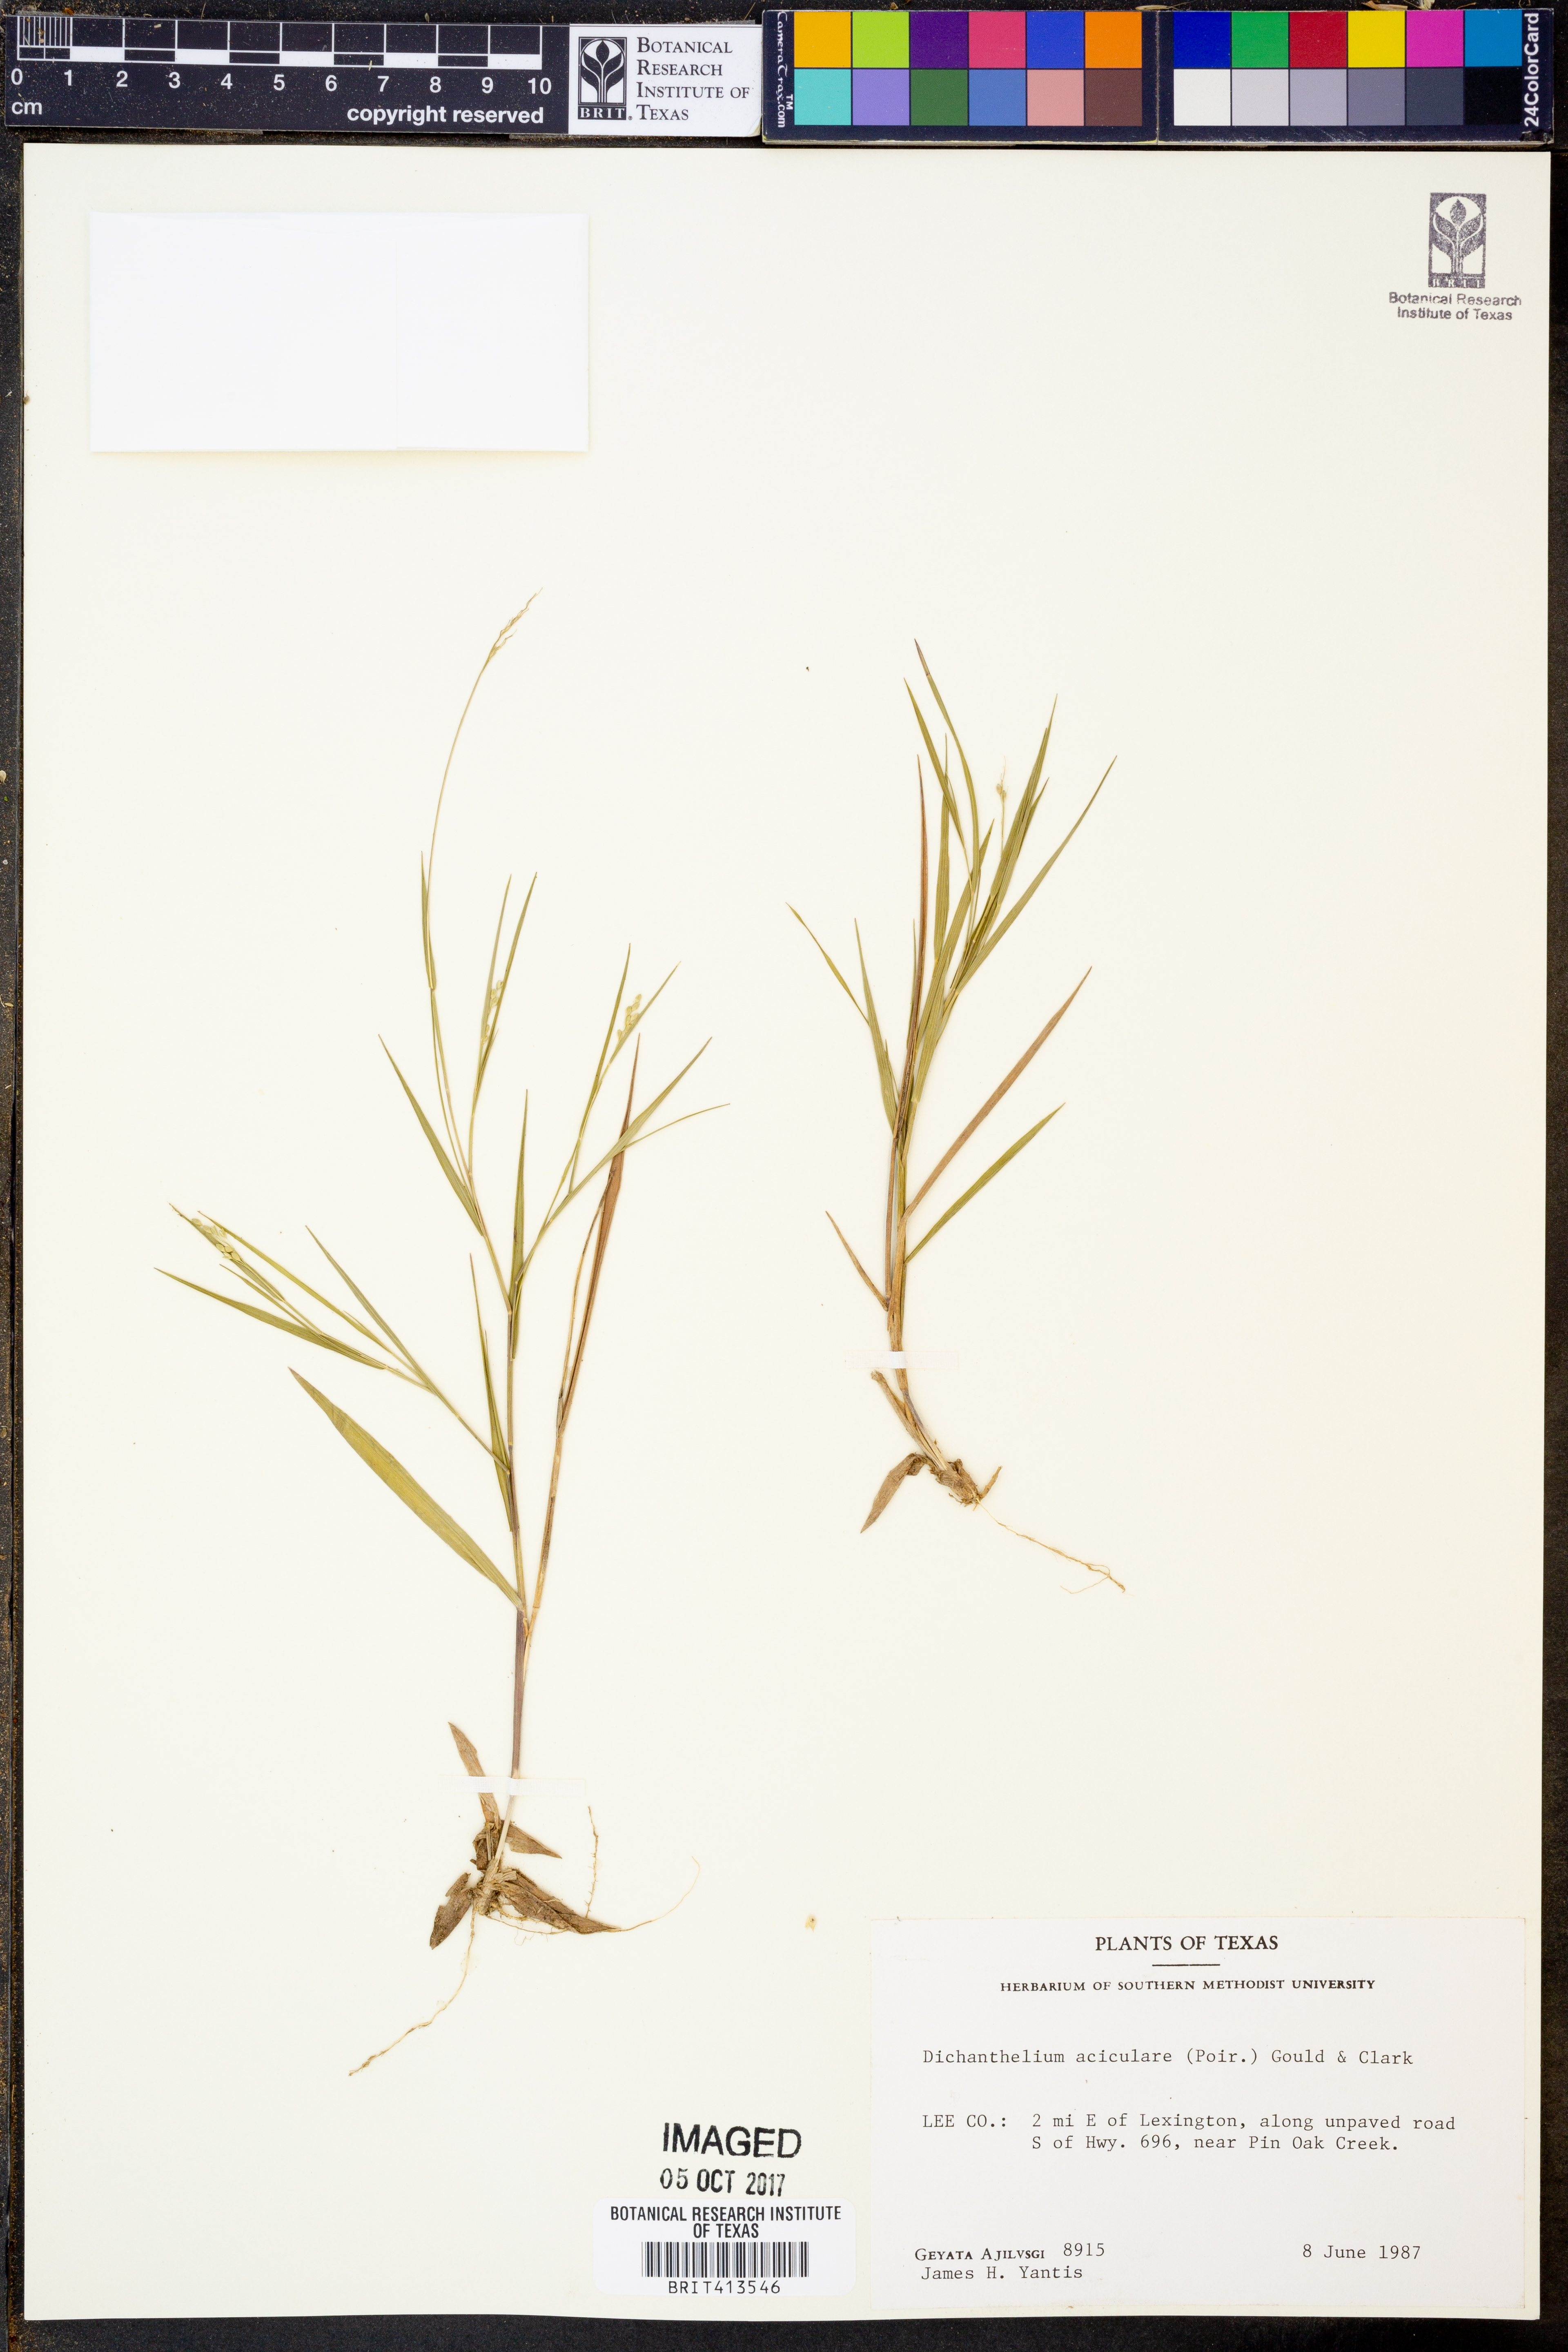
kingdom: Plantae
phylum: Tracheophyta
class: Liliopsida
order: Poales
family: Poaceae
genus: Dichanthelium
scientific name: Dichanthelium aciculare
